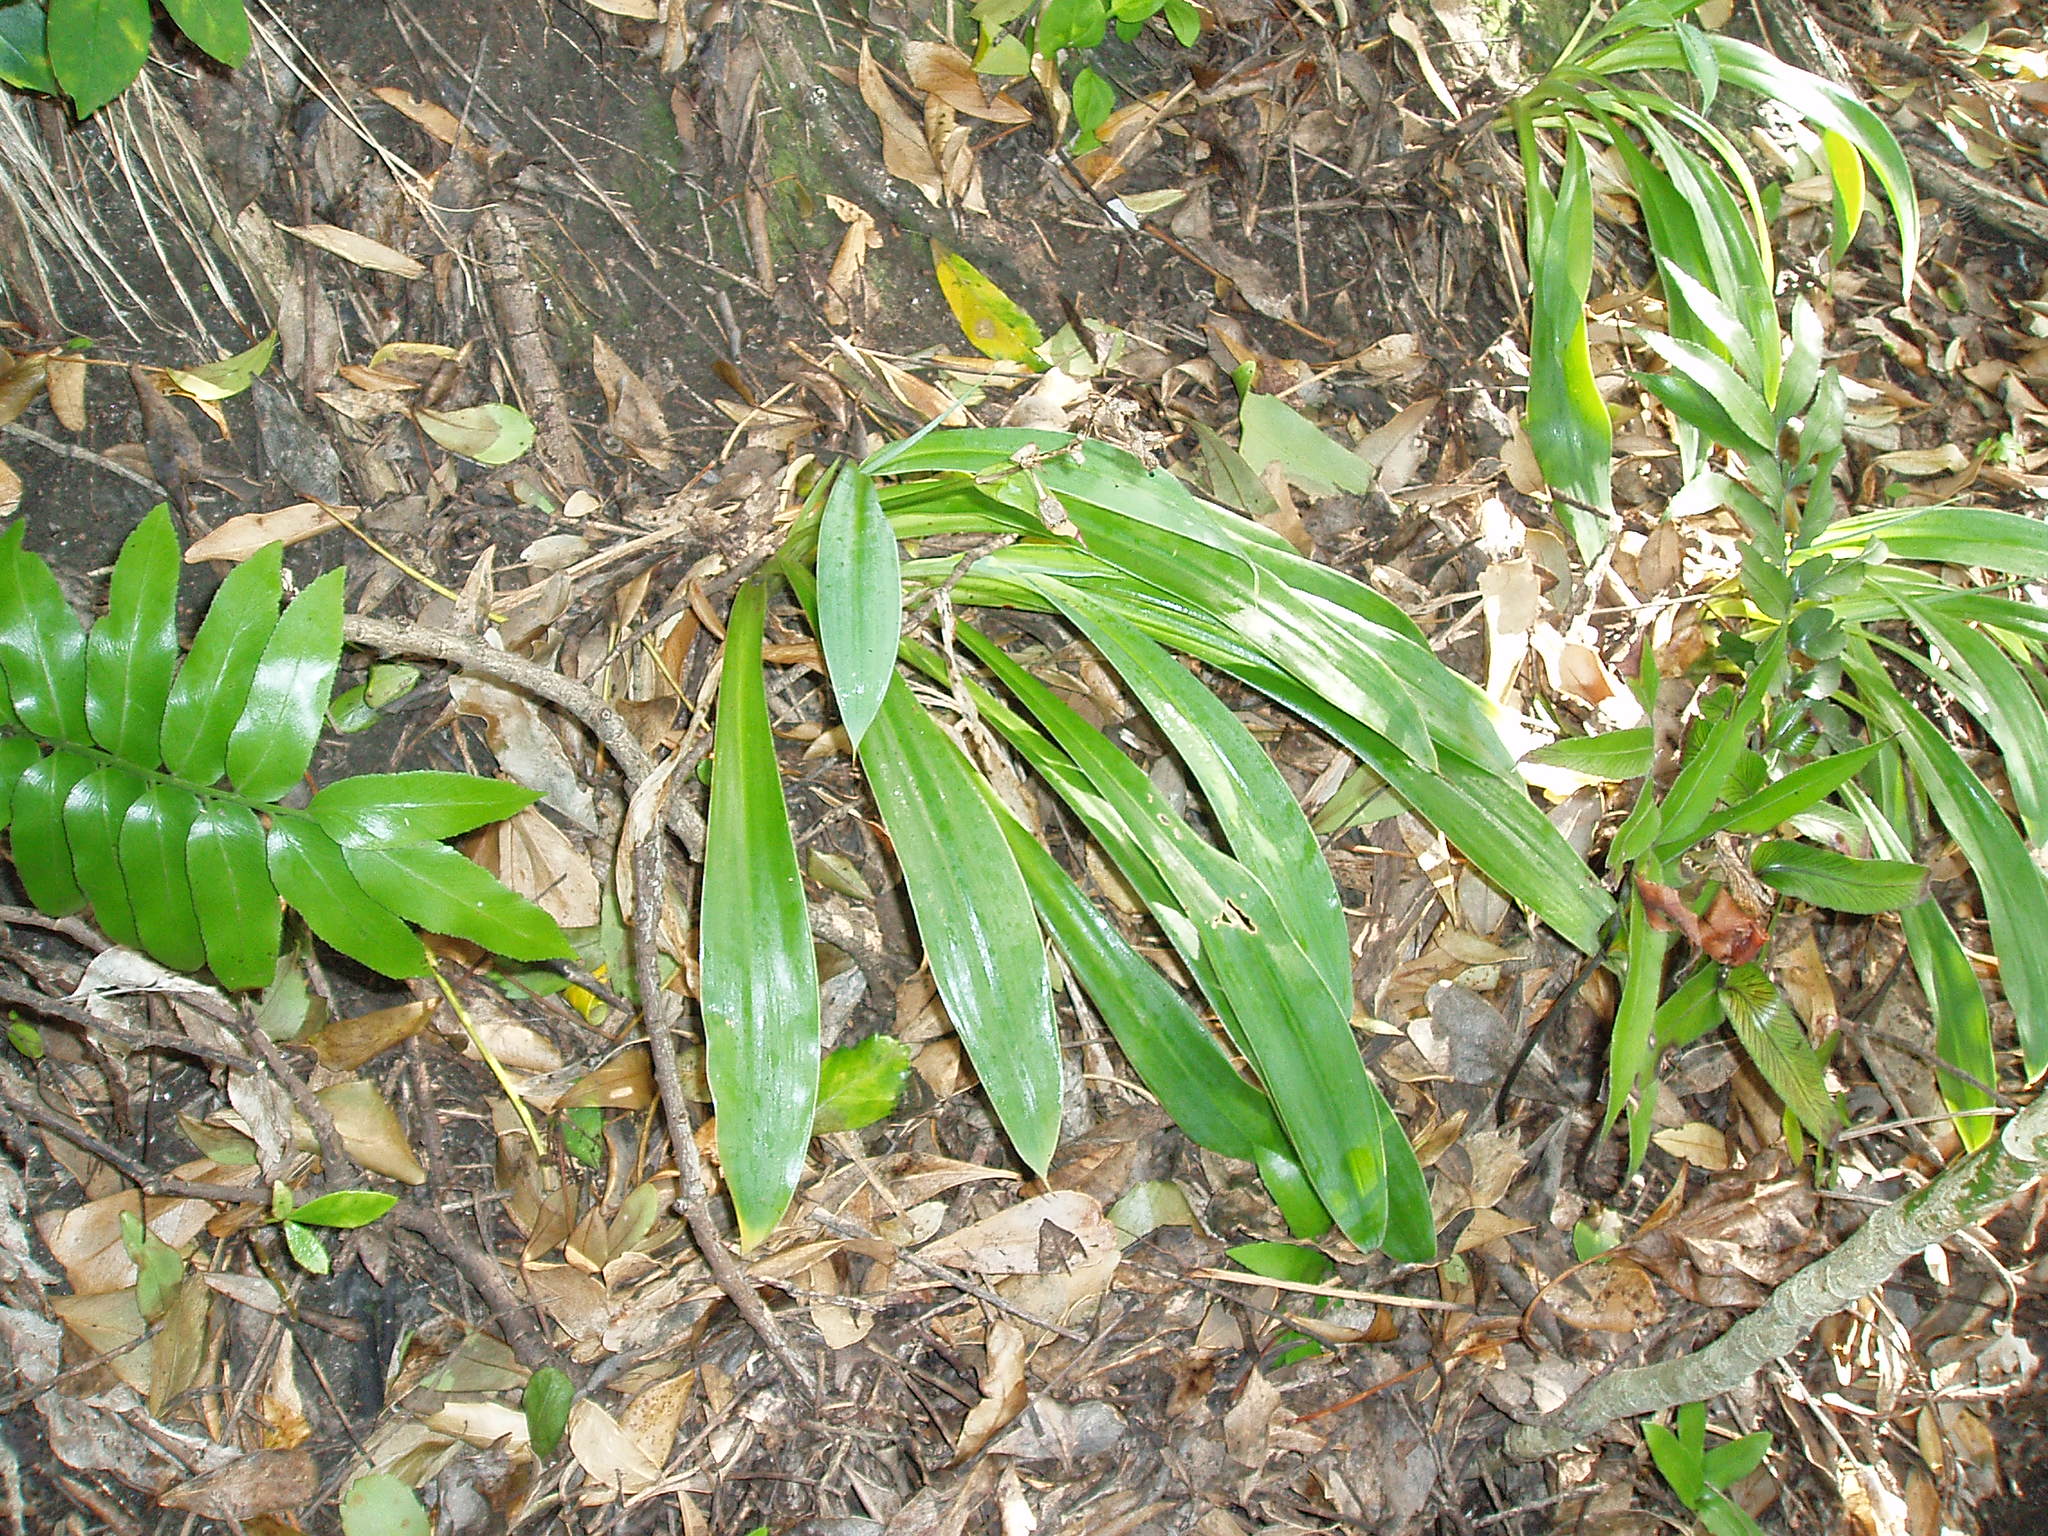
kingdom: Plantae
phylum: Tracheophyta
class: Liliopsida
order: Asparagales
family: Asparagaceae
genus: Arthropodium
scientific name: Arthropodium cirratum
